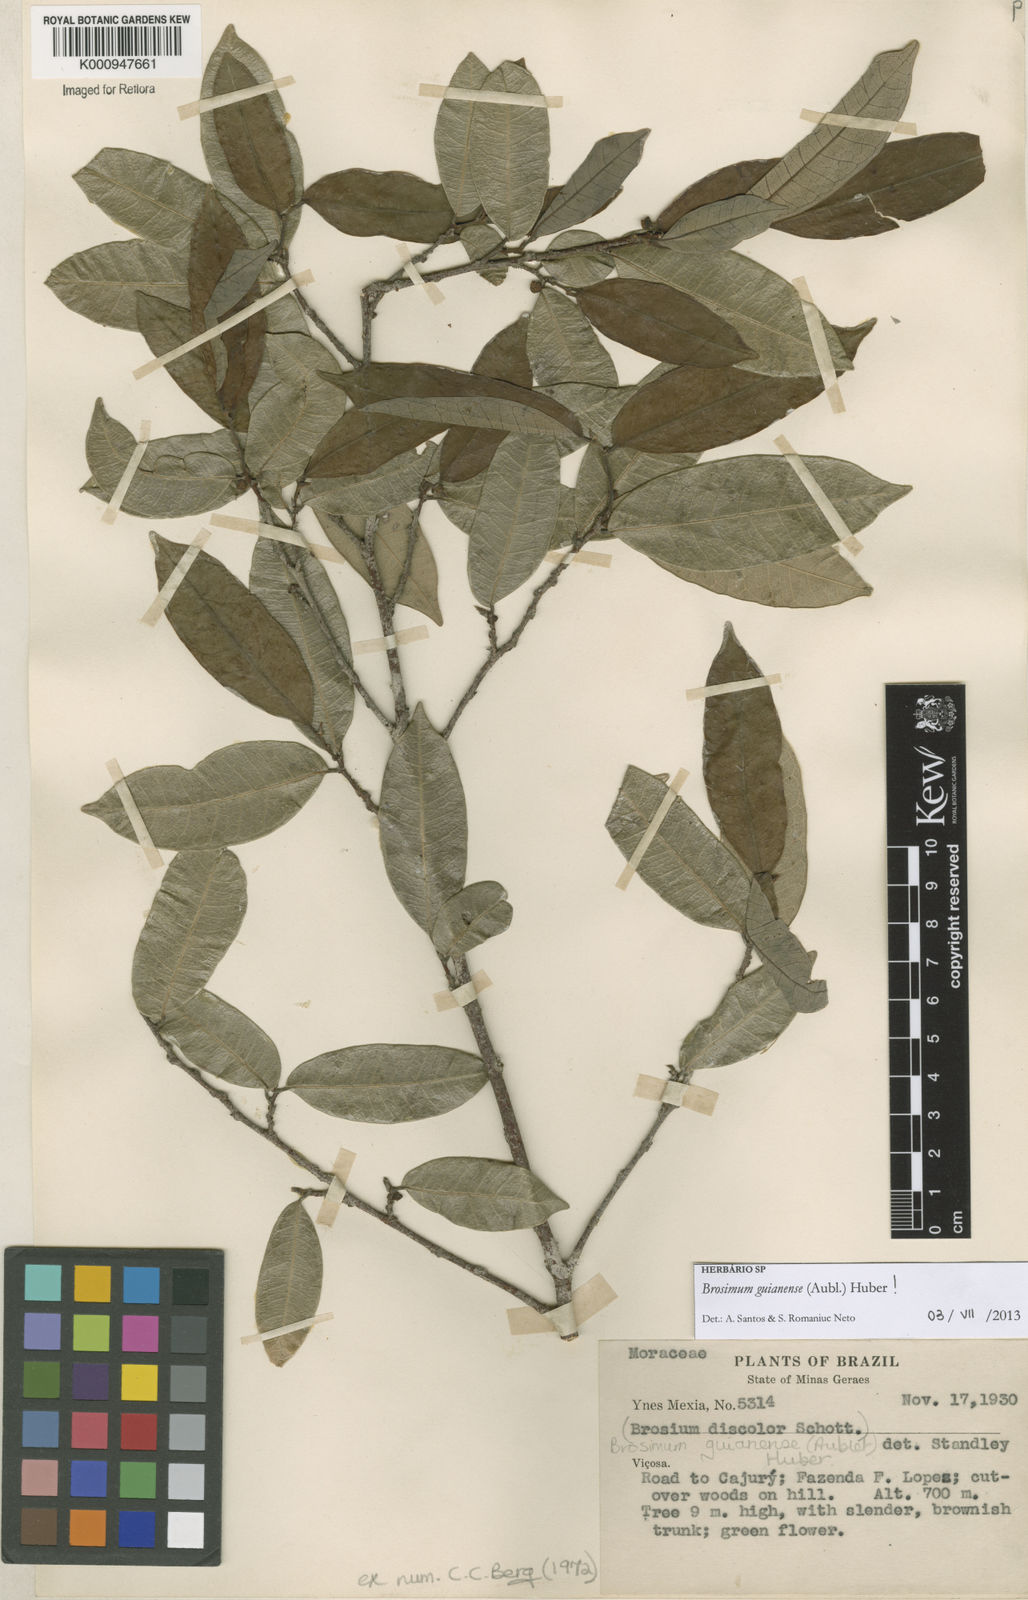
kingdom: Plantae
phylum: Tracheophyta
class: Magnoliopsida
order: Rosales
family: Moraceae
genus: Brosimum
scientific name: Brosimum
